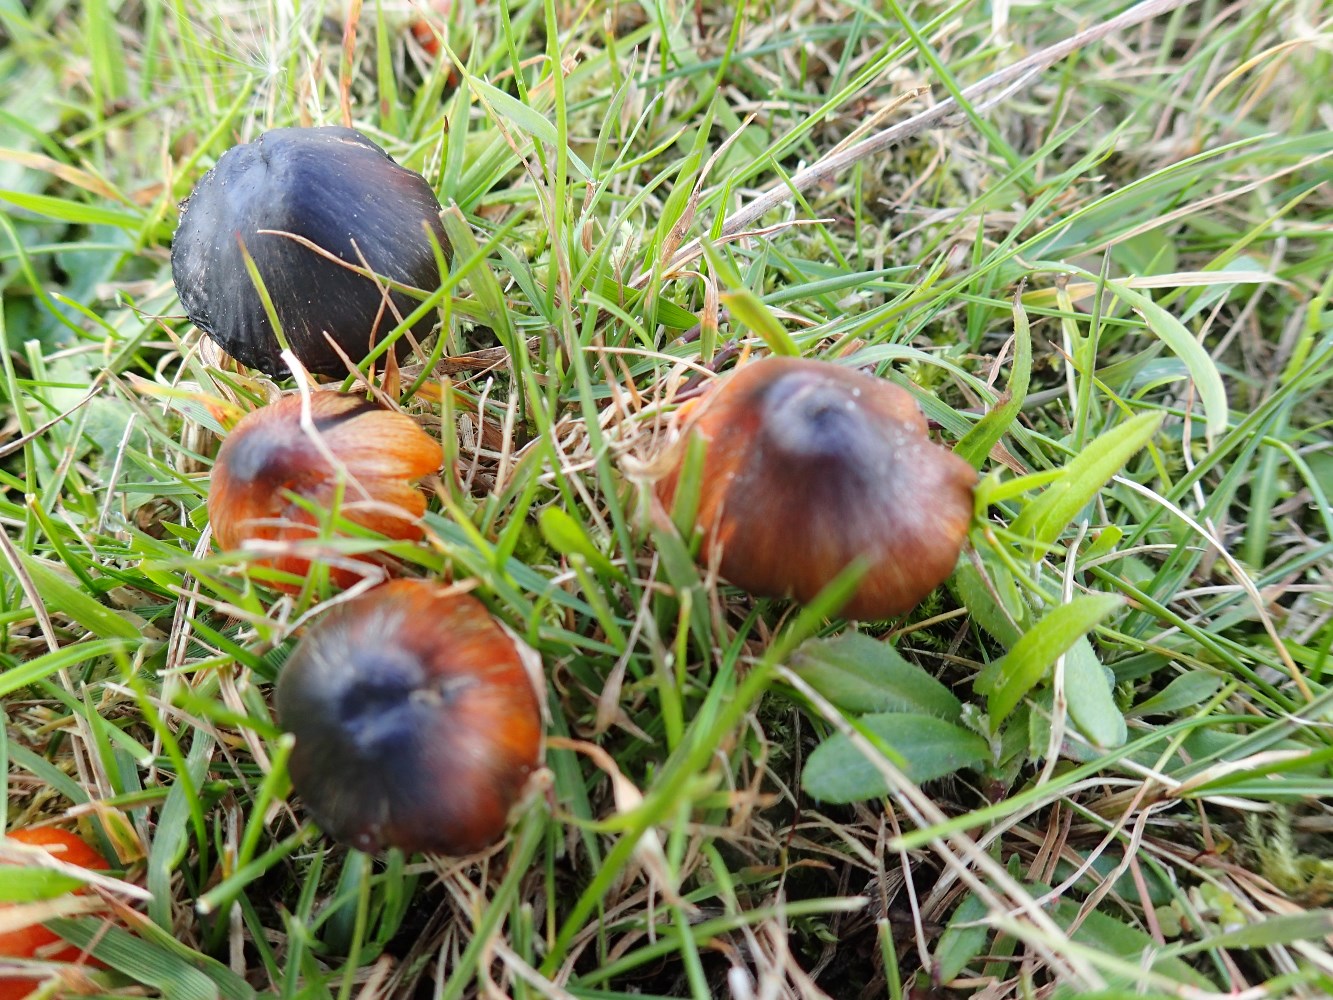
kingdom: Fungi
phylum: Basidiomycota
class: Agaricomycetes
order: Agaricales
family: Hygrophoraceae
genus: Hygrocybe
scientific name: Hygrocybe conica
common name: kegle-vokshat
